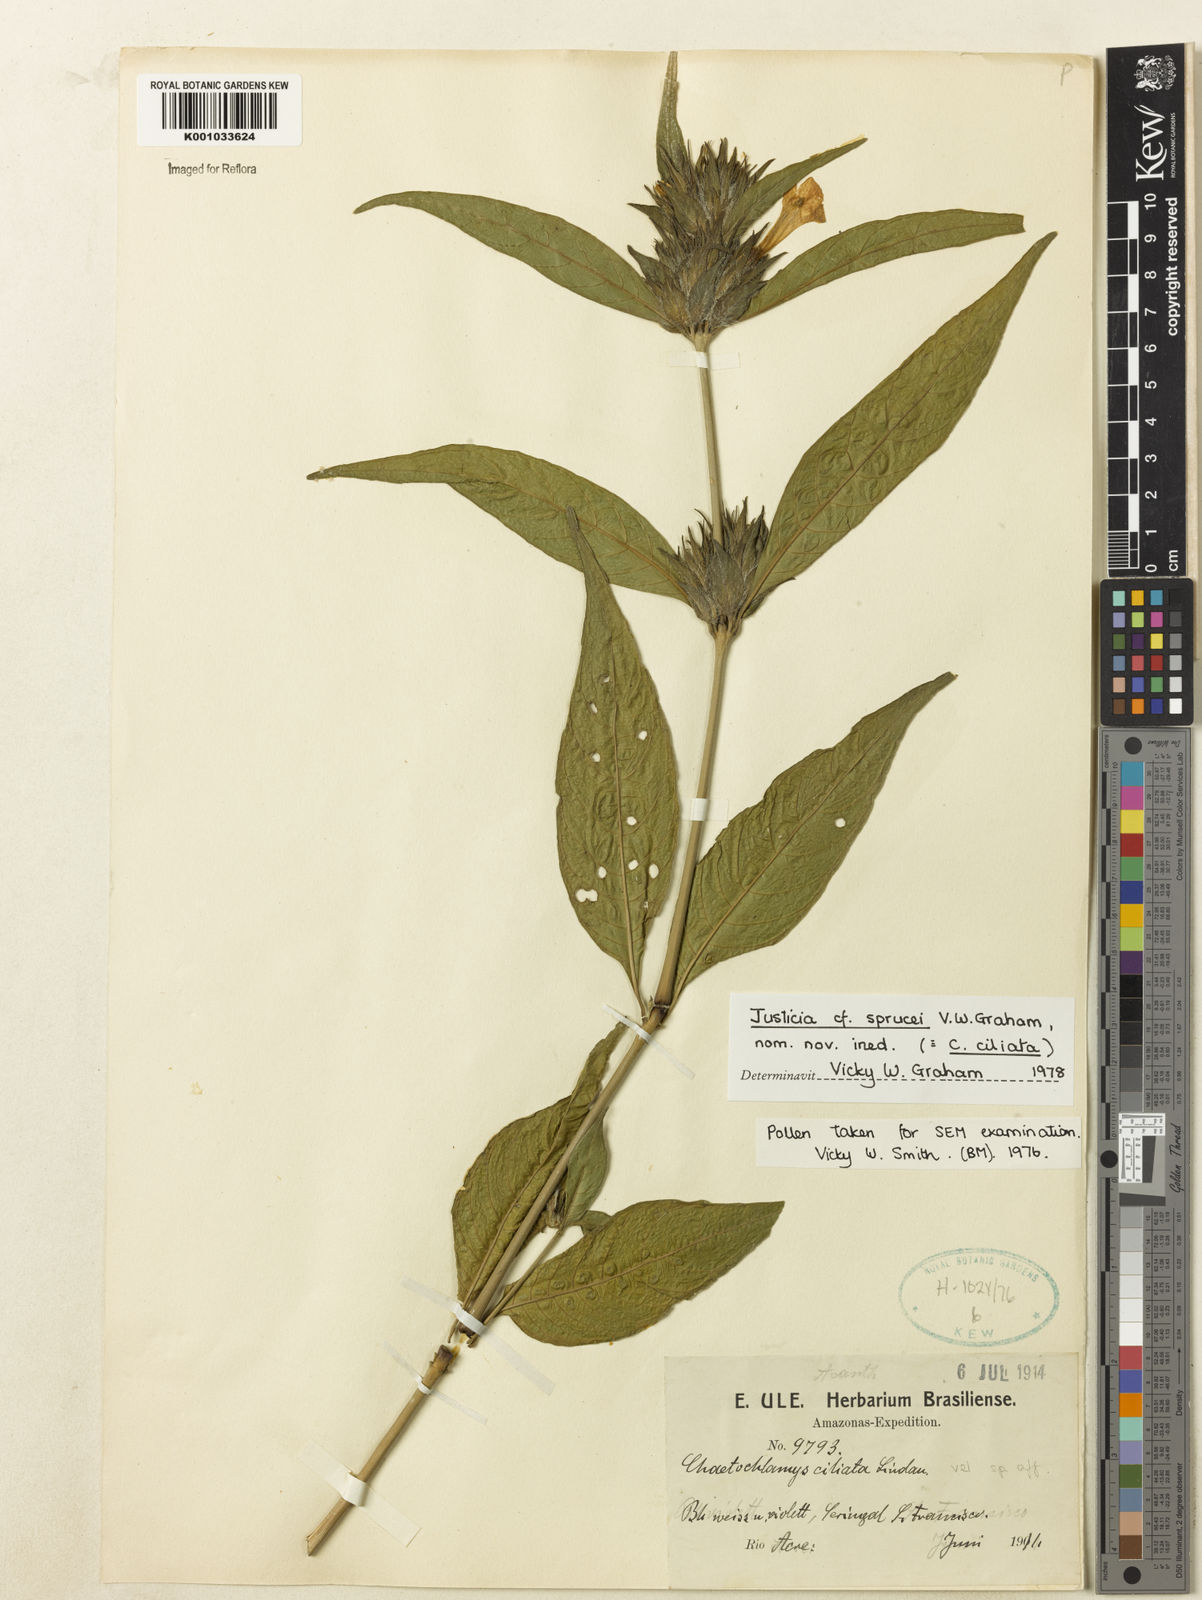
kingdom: Plantae
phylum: Tracheophyta
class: Magnoliopsida
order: Lamiales
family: Acanthaceae
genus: Justicia
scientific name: Justicia sprucei
